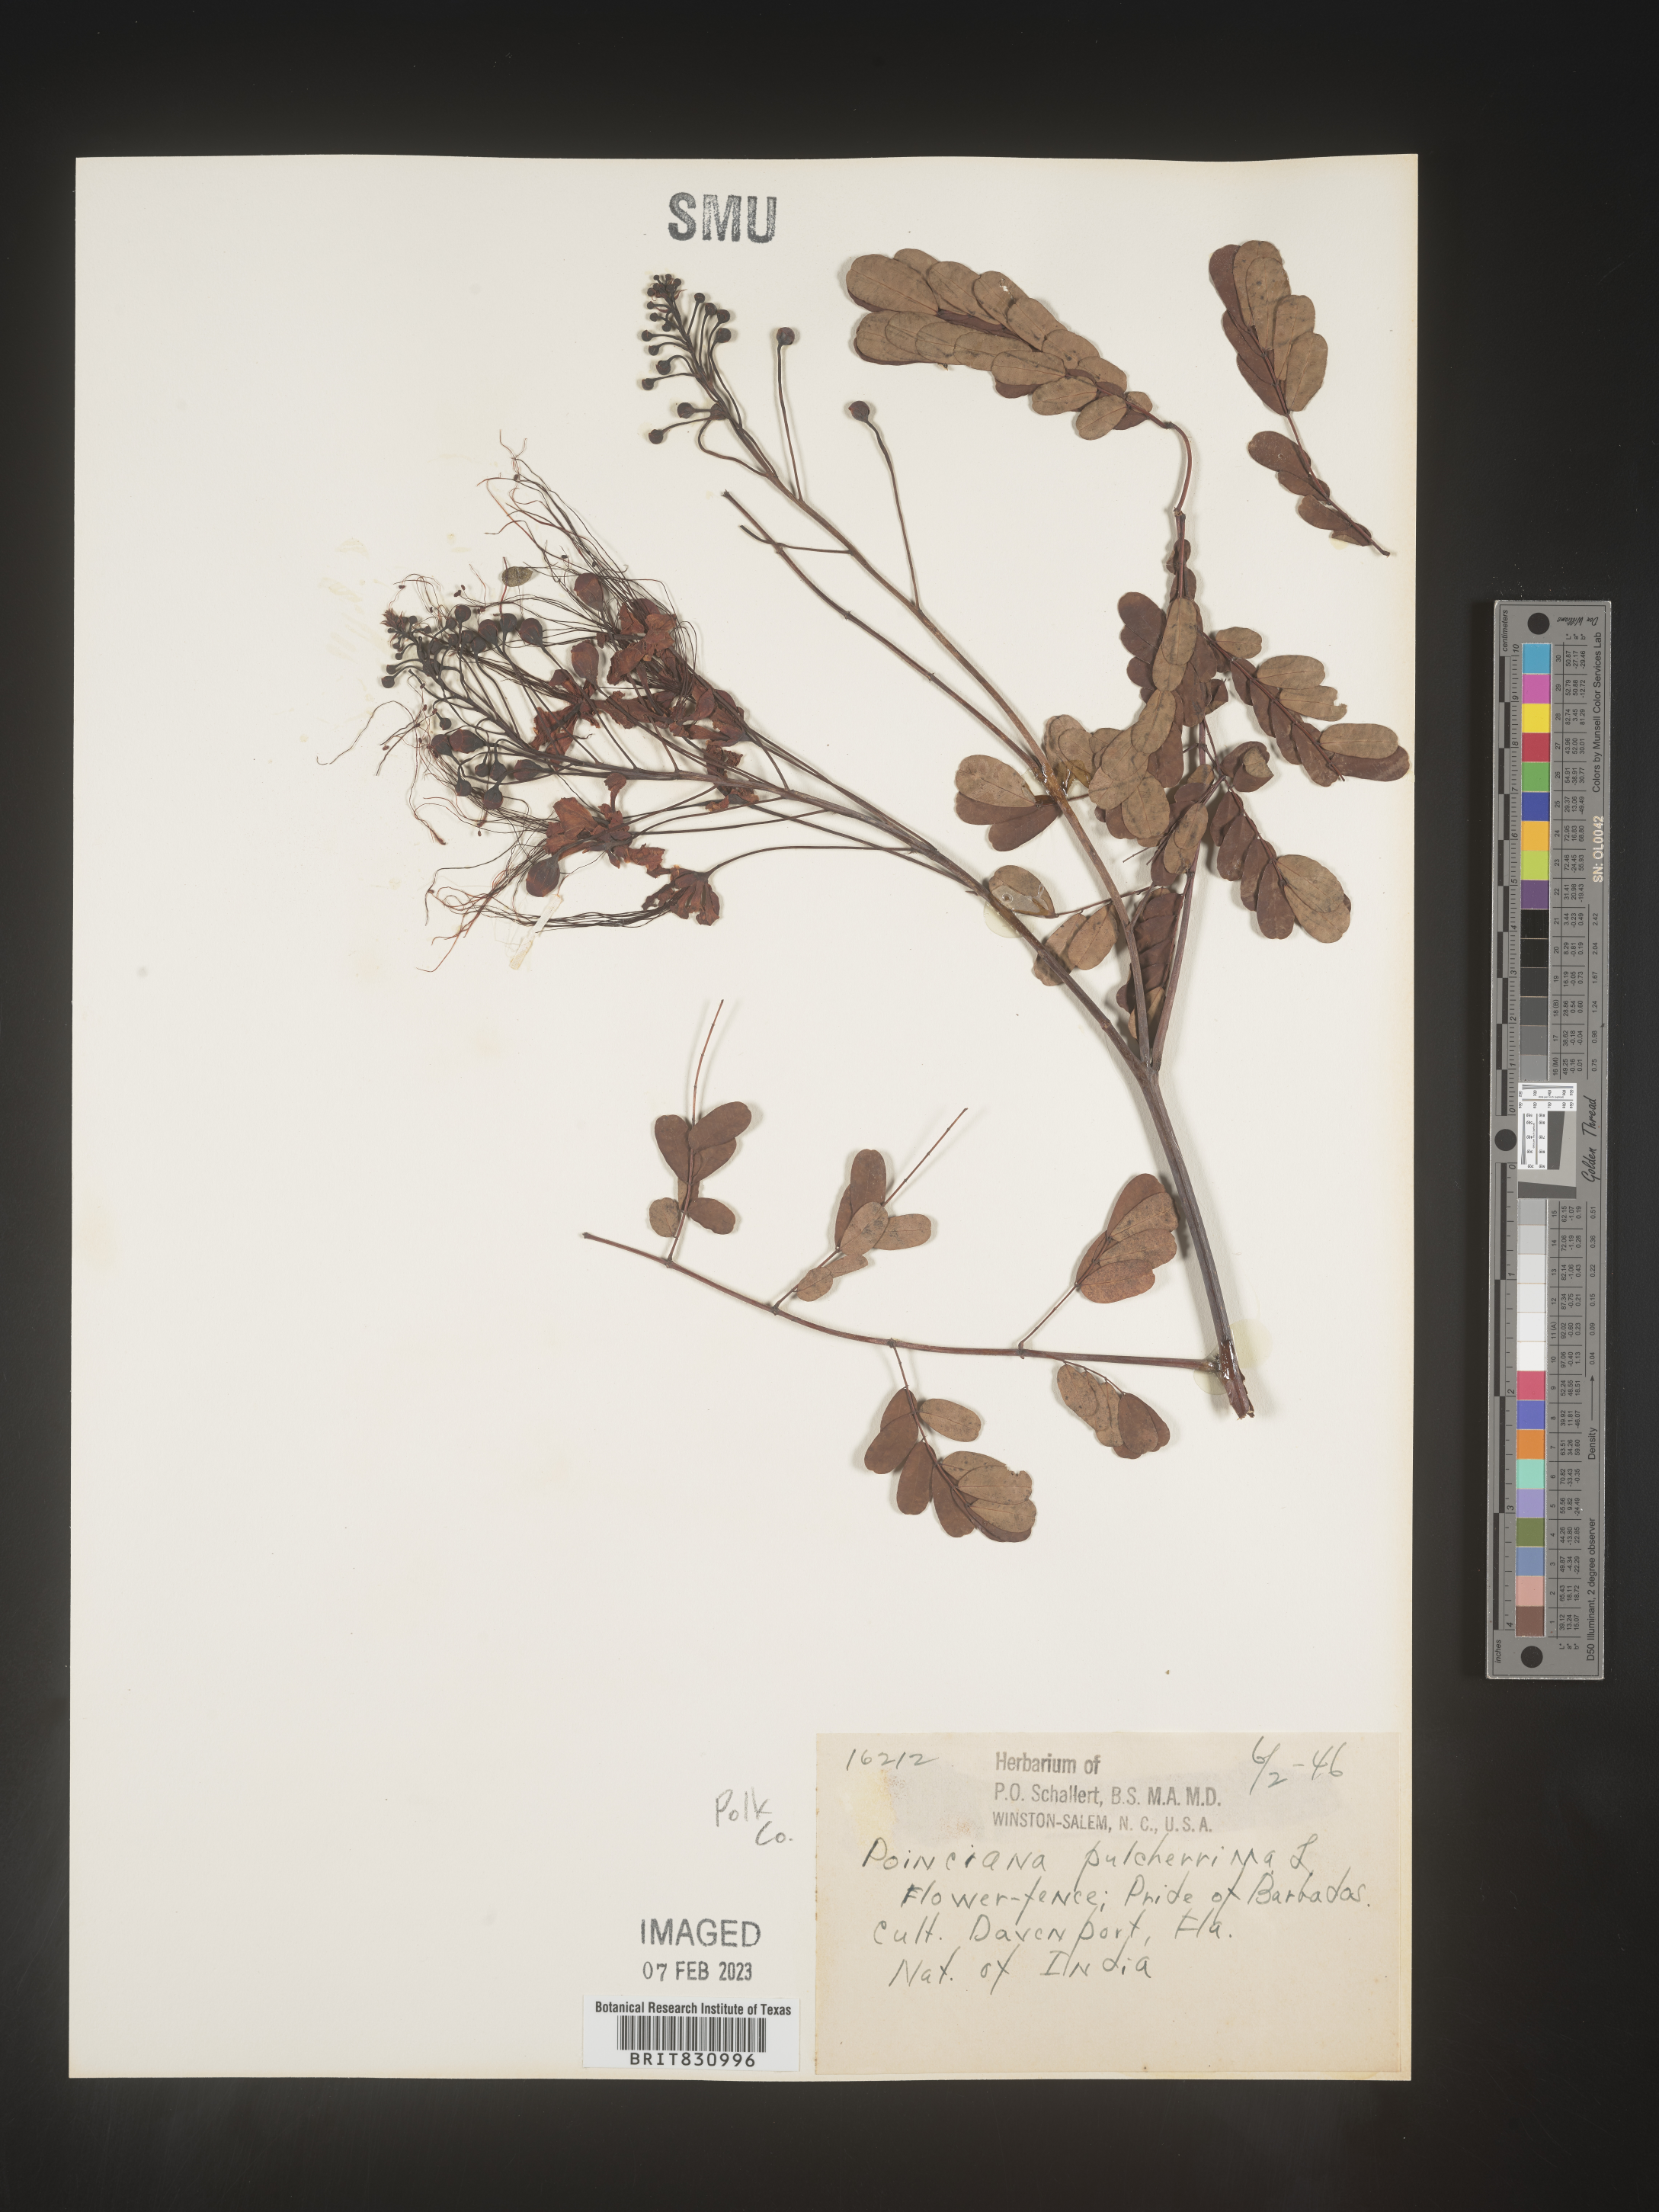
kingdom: Plantae
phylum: Tracheophyta
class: Magnoliopsida
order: Fabales
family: Fabaceae
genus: Caesalpinia
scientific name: Caesalpinia
